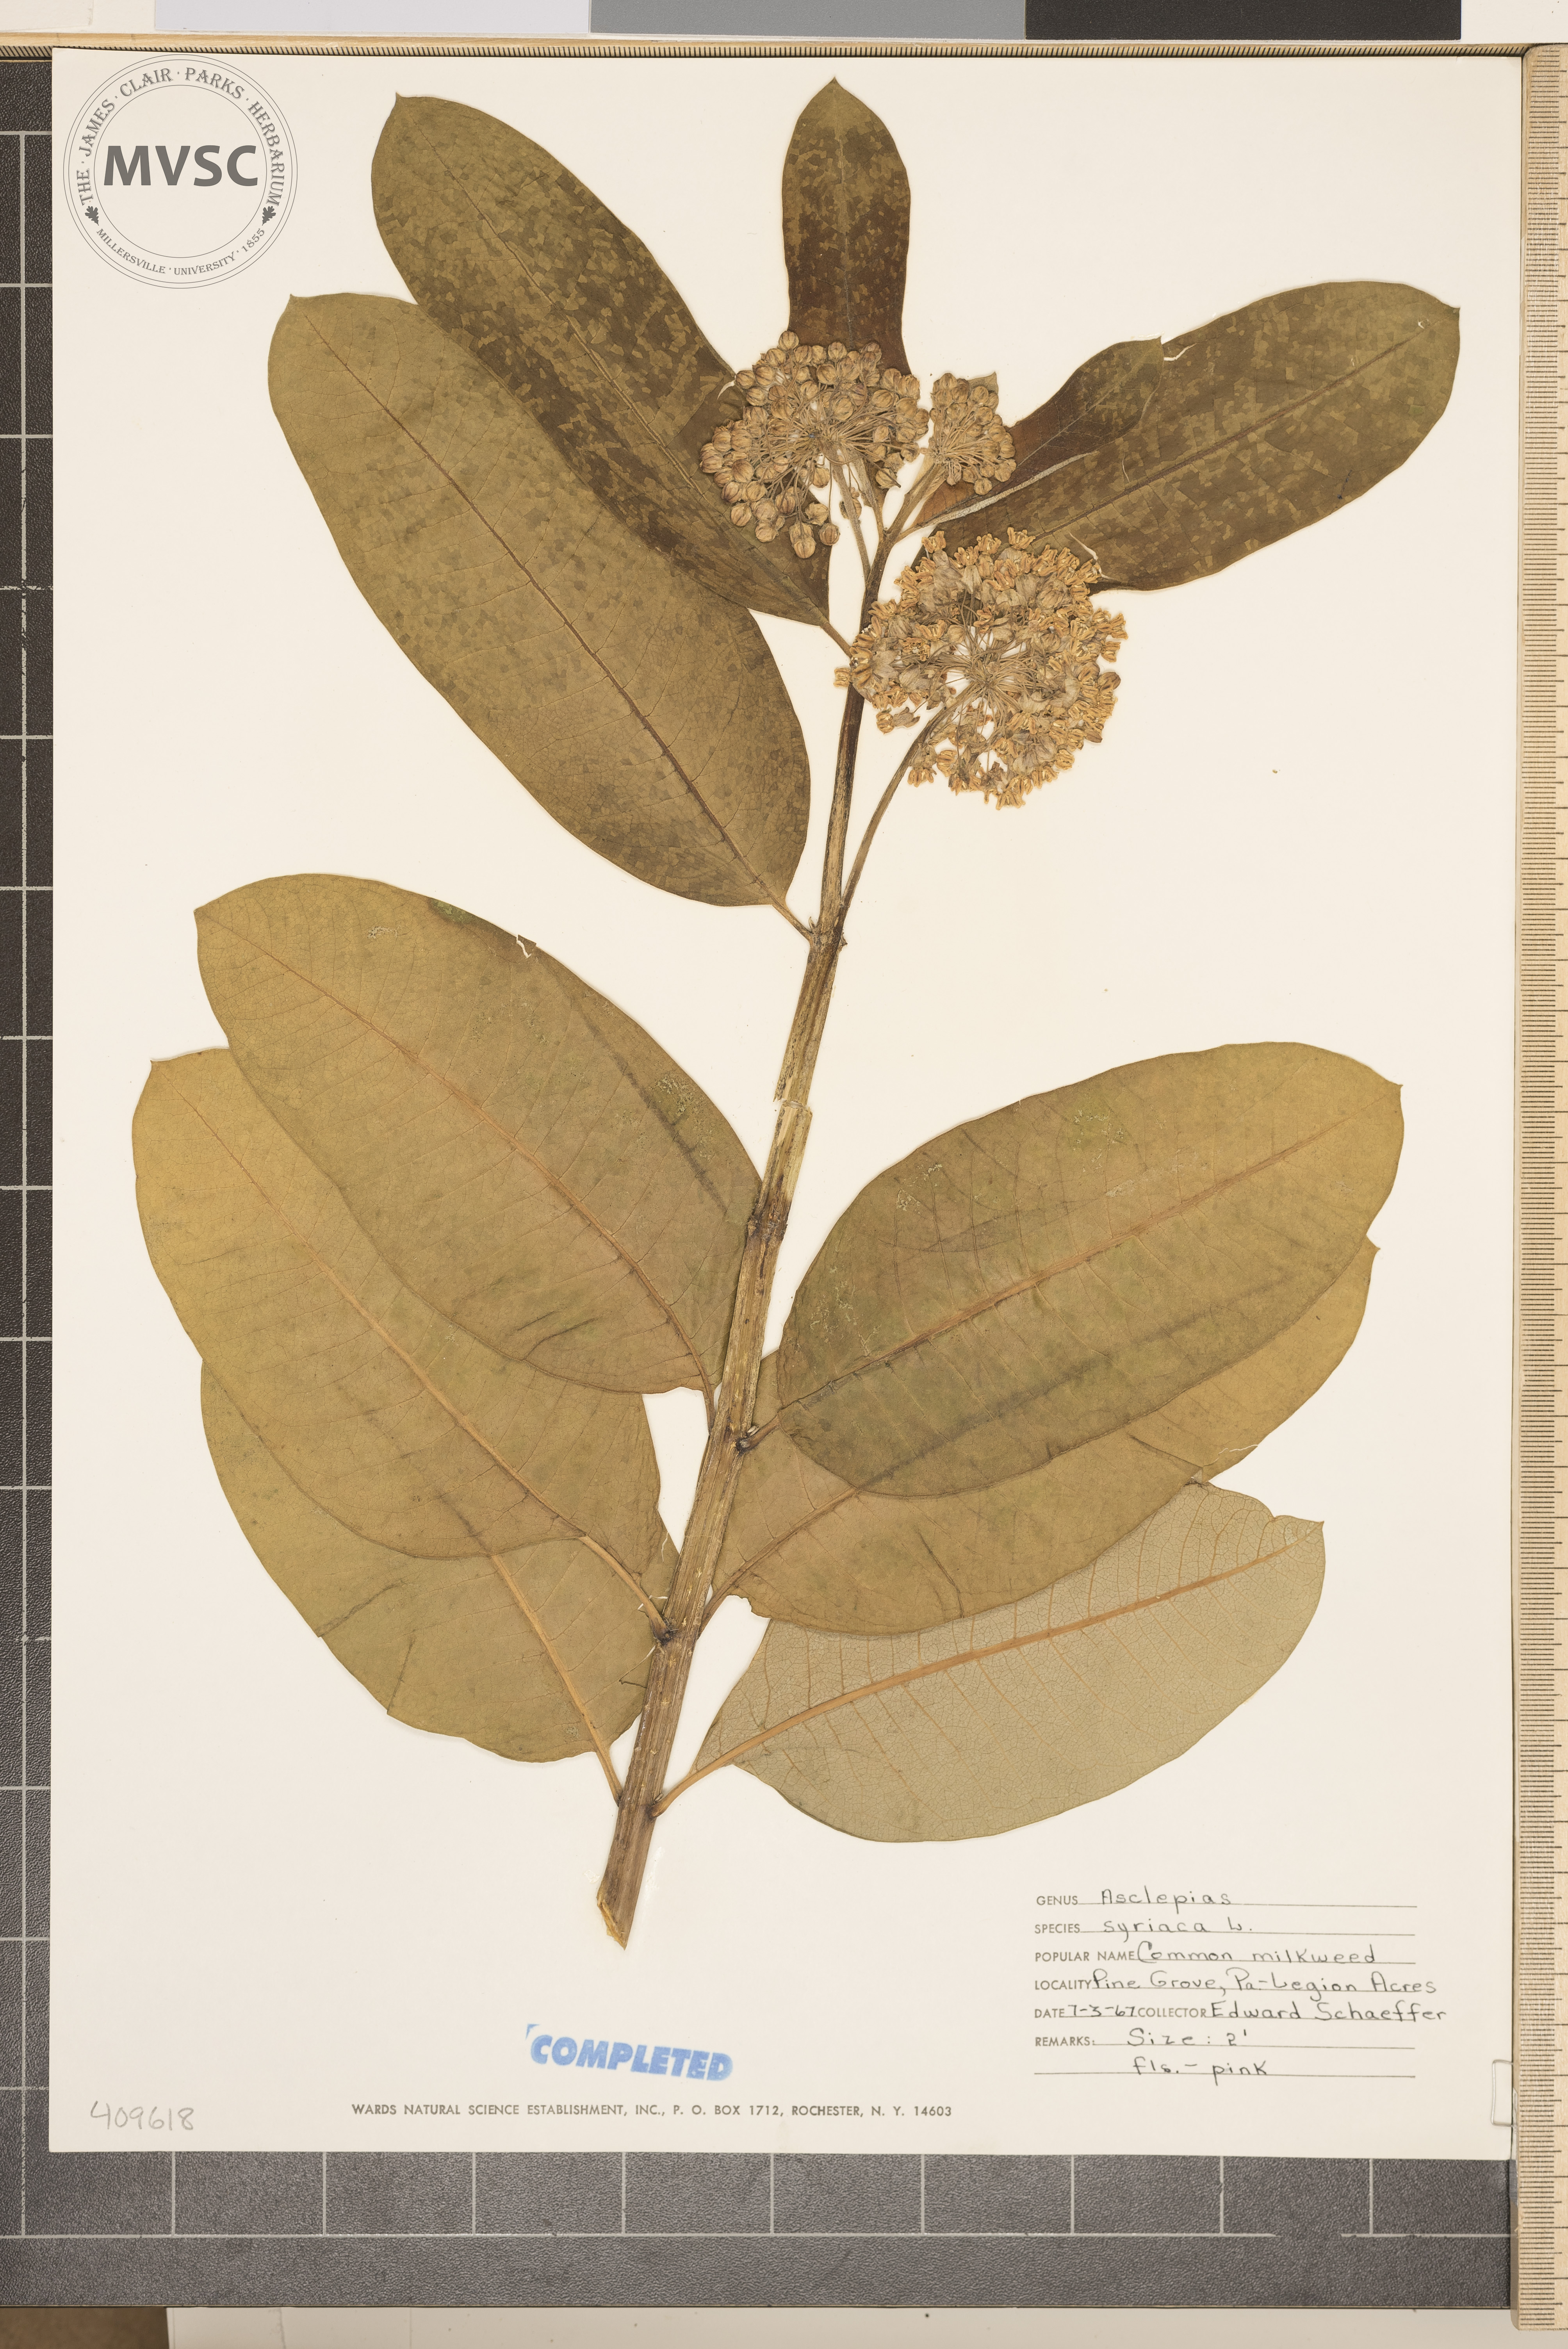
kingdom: Plantae
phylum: Tracheophyta
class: Magnoliopsida
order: Gentianales
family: Apocynaceae
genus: Asclepias
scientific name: Asclepias syriaca
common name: Common milkweed
